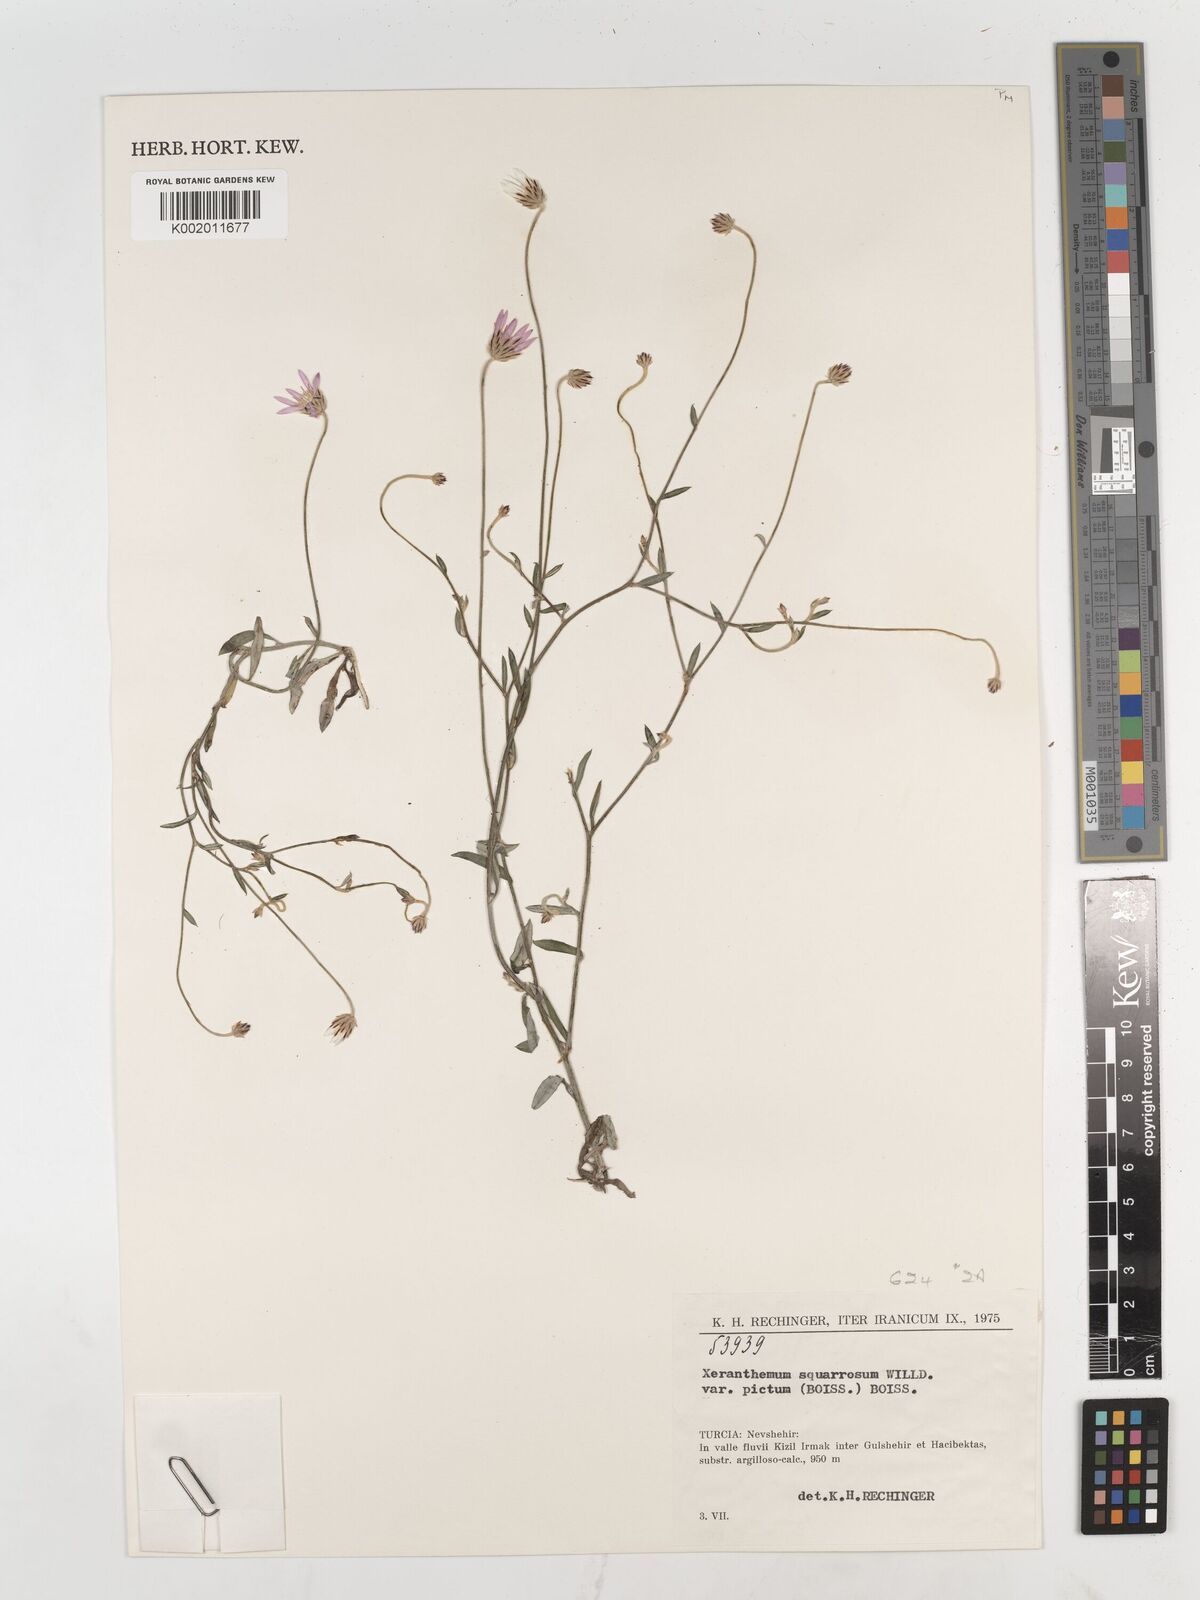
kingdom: Plantae
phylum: Tracheophyta
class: Magnoliopsida
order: Asterales
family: Asteraceae
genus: Xeranthemum
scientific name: Xeranthemum squarrosum
